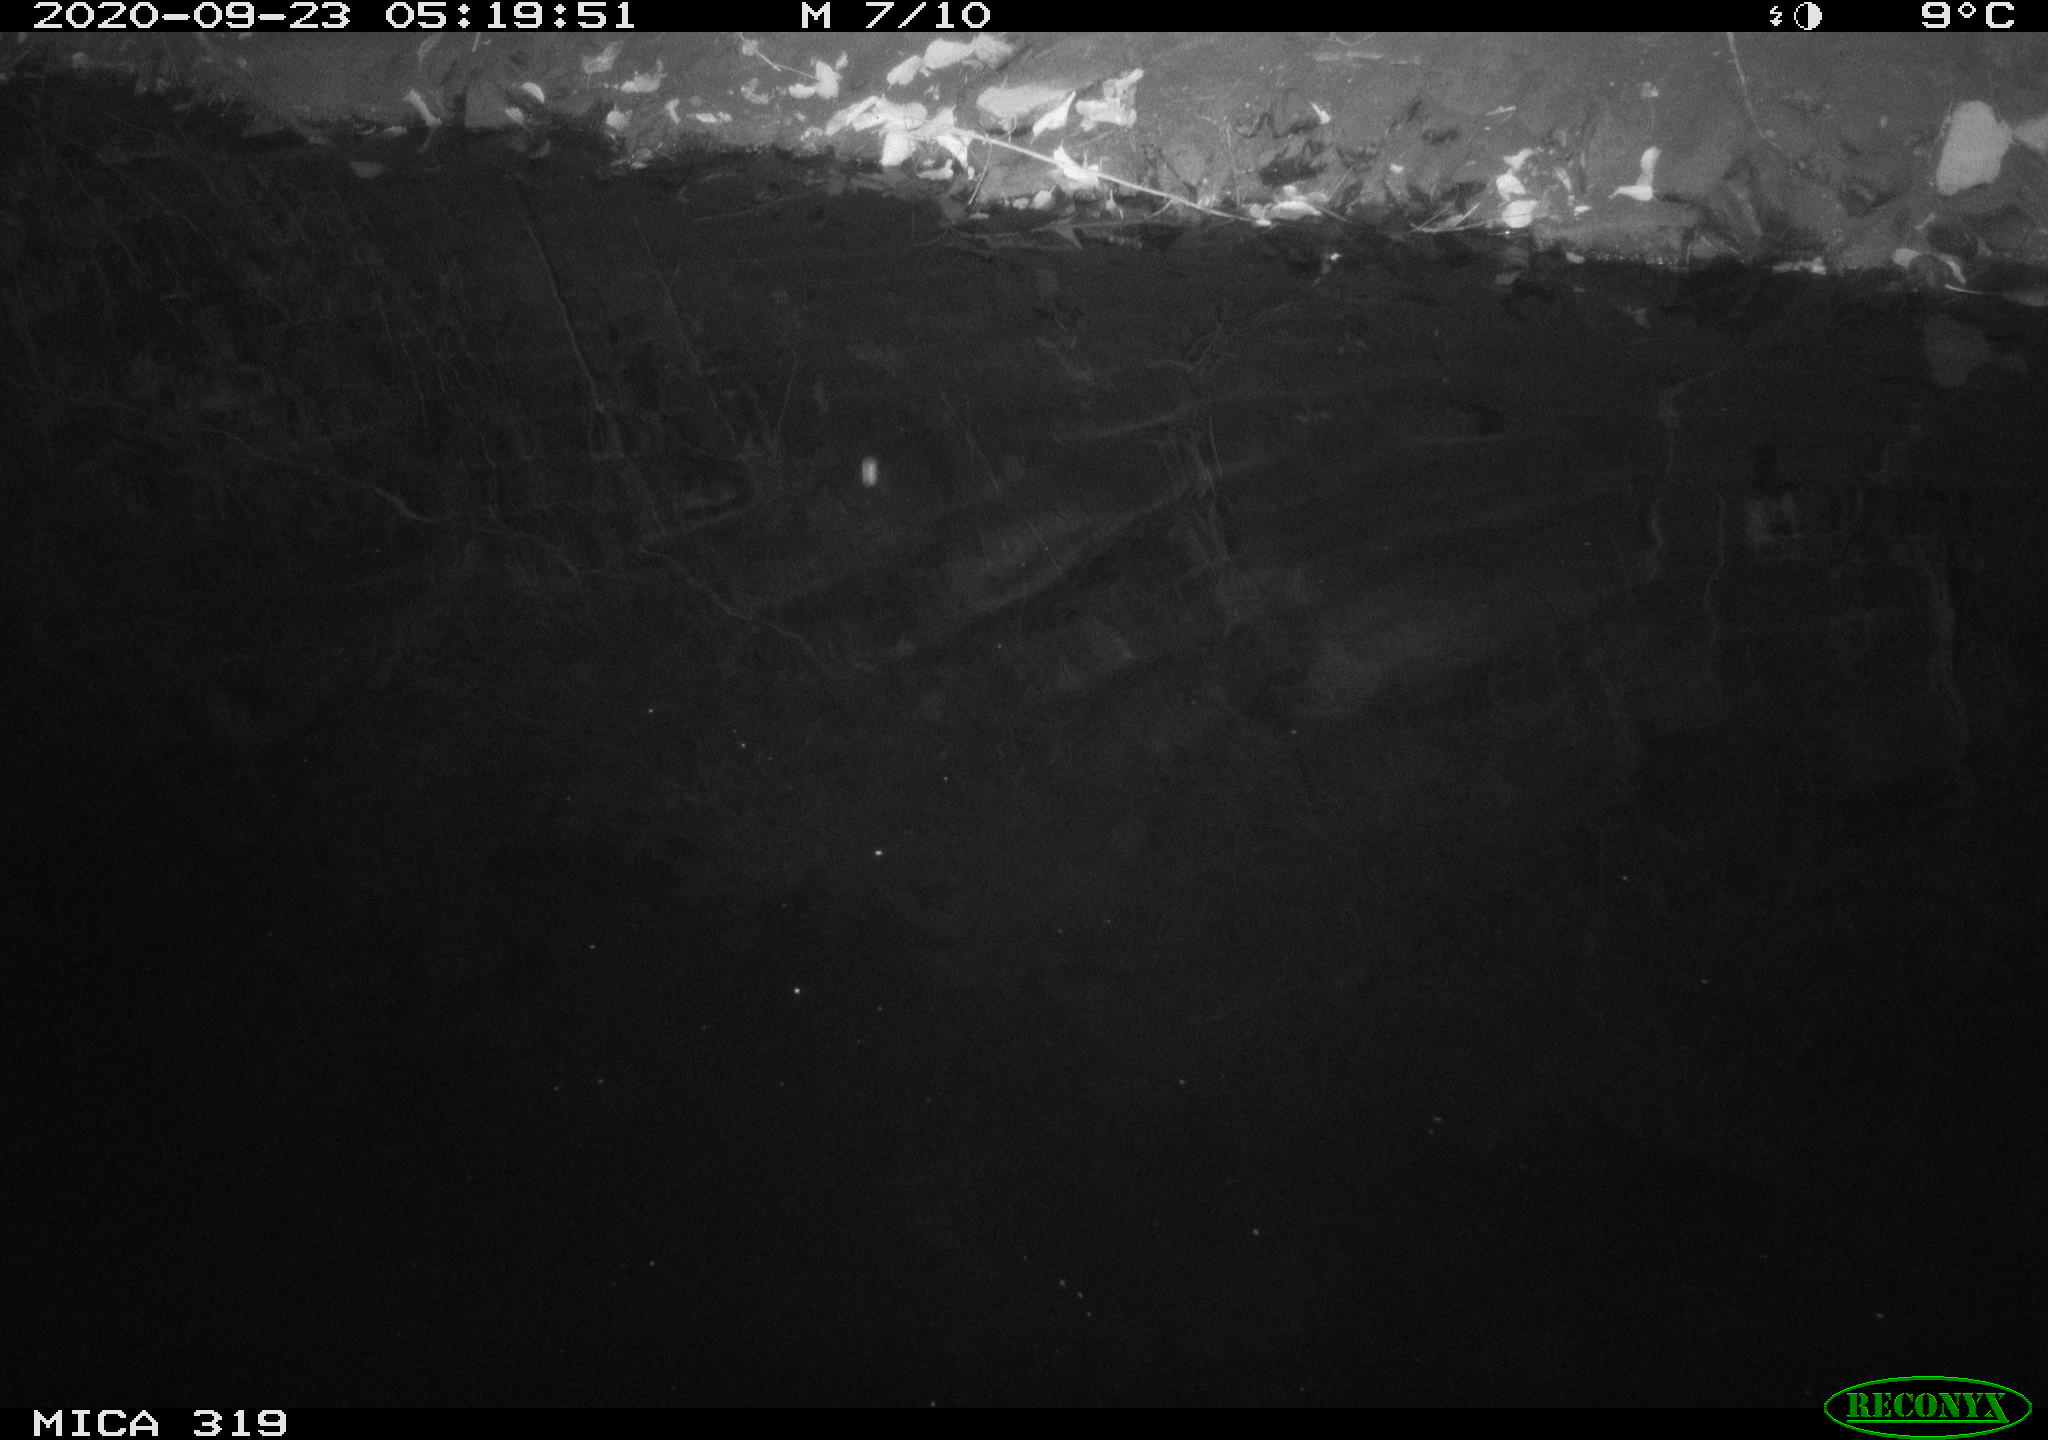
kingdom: Animalia
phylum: Chordata
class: Aves
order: Anseriformes
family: Anatidae
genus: Anas
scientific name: Anas platyrhynchos
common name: Mallard
